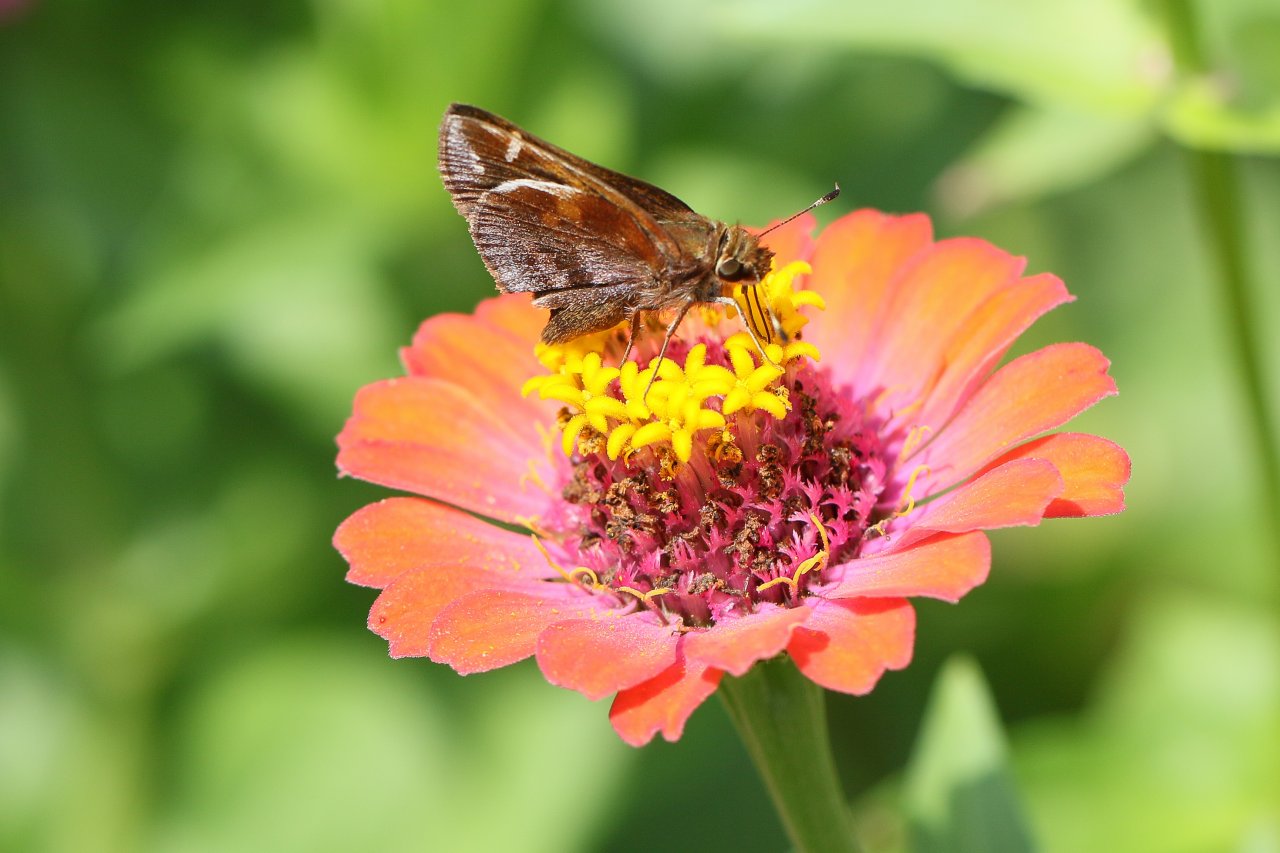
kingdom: Animalia
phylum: Arthropoda
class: Insecta
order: Lepidoptera
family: Hesperiidae
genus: Lon
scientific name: Lon zabulon
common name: Zabulon Skipper
